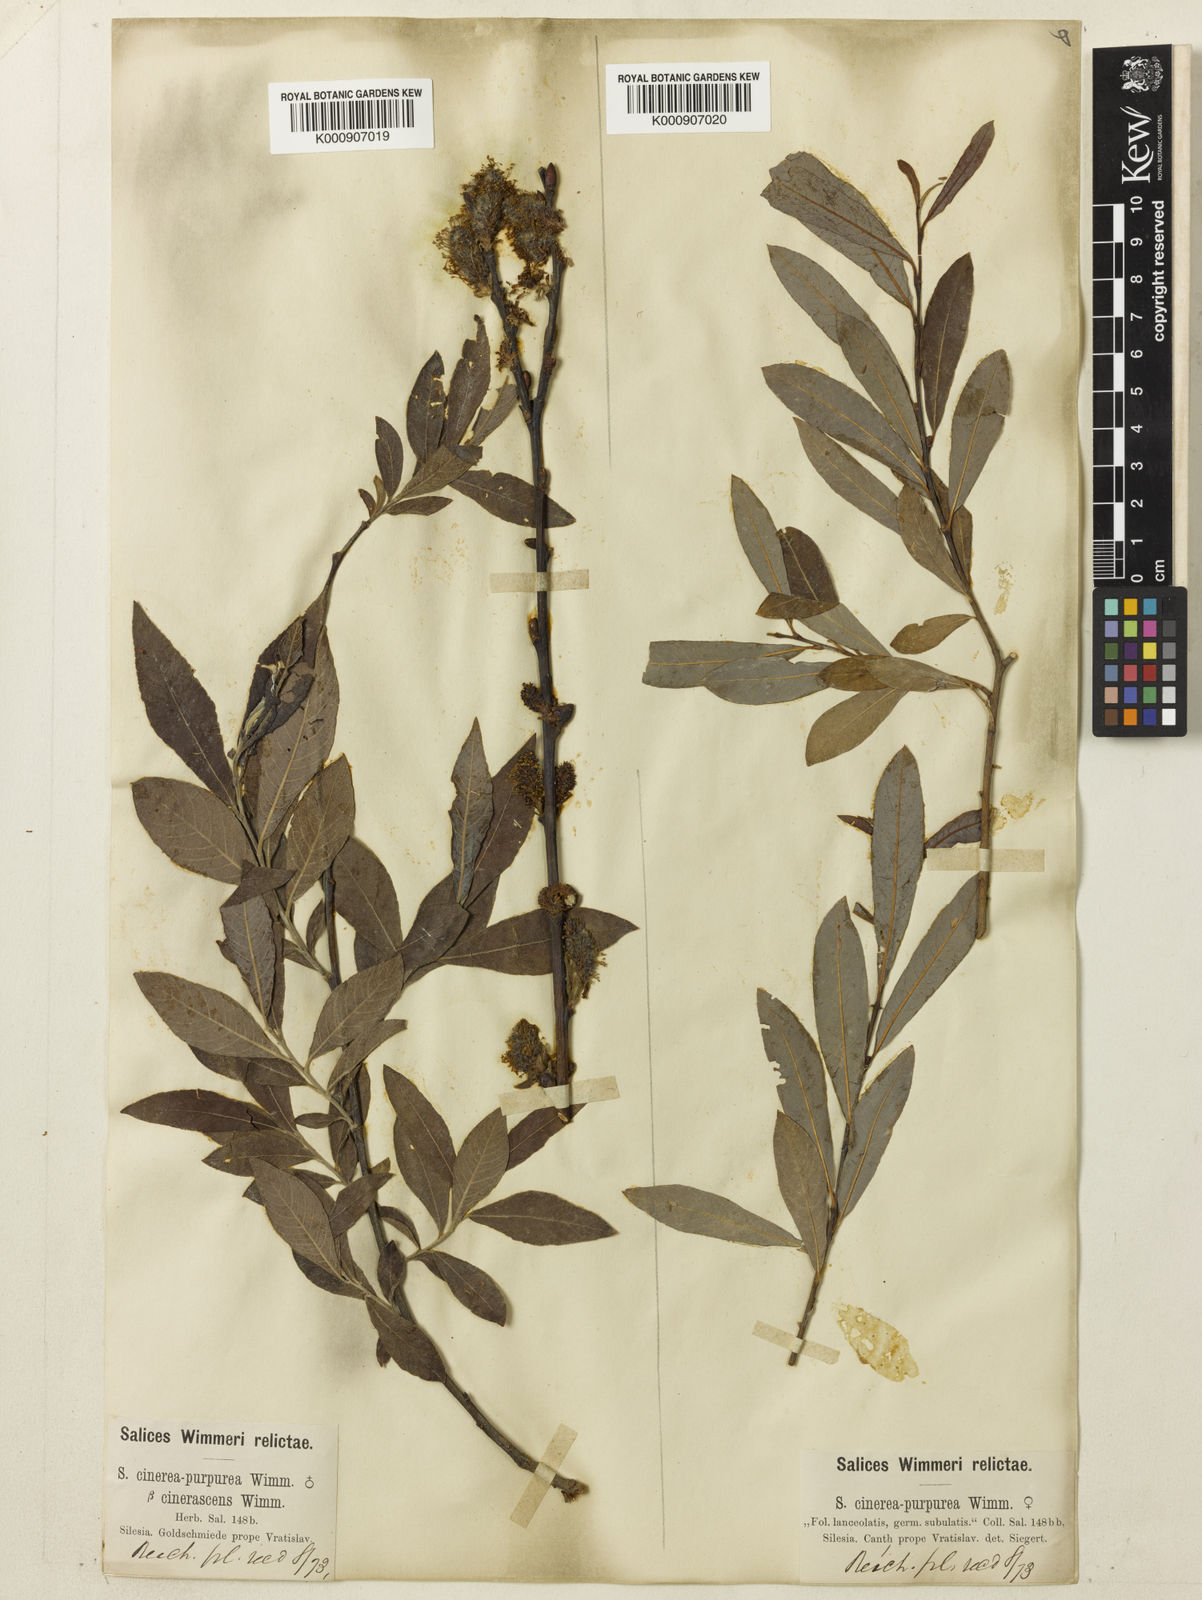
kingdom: Plantae
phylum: Tracheophyta
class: Magnoliopsida
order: Malpighiales
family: Salicaceae
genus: Salix
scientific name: Salix aurita
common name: Eared willow
